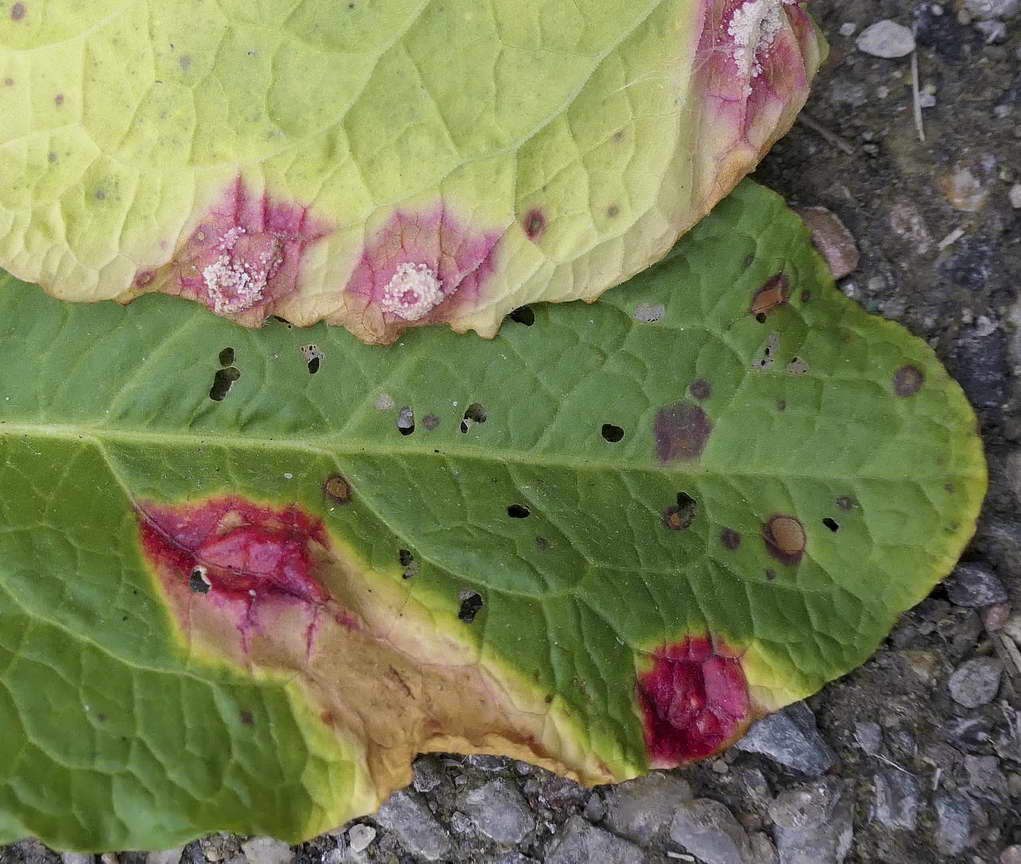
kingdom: Fungi
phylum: Basidiomycota
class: Pucciniomycetes
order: Pucciniales
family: Pucciniaceae
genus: Puccinia
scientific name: Puccinia phragmitis
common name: tagrør-tvecellerust
